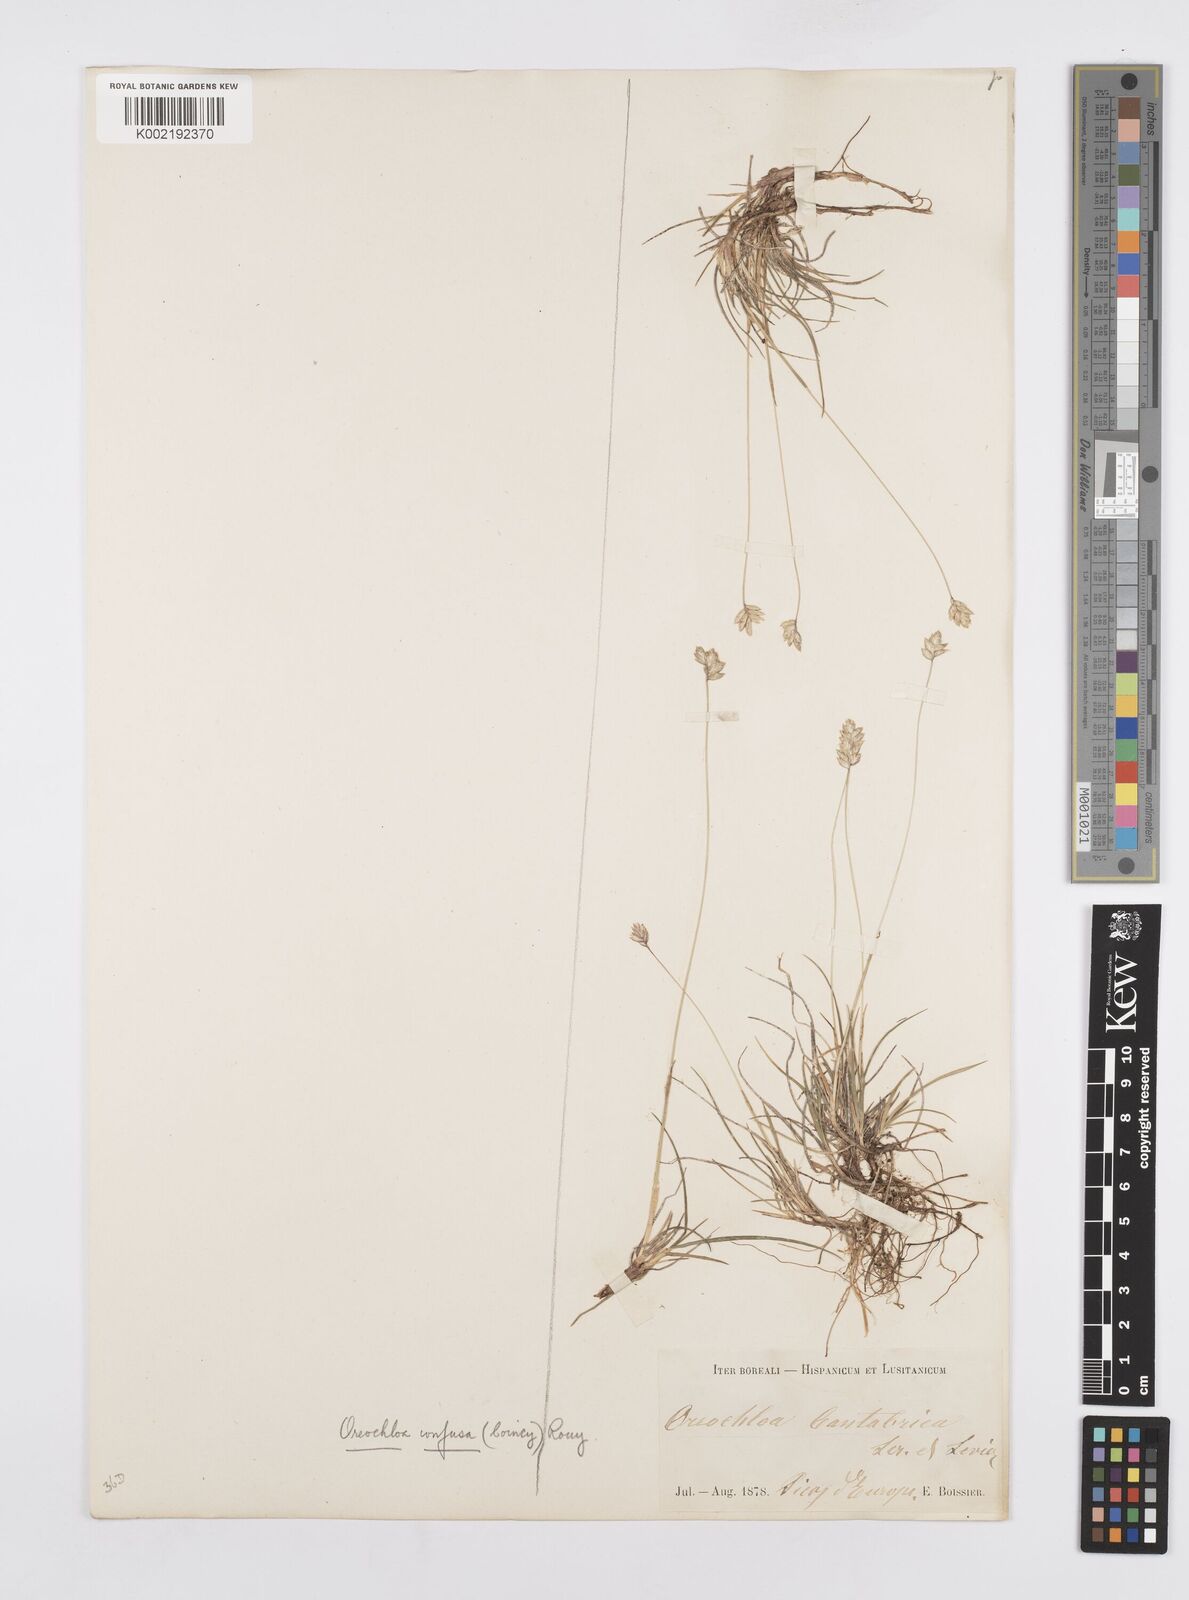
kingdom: Plantae
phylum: Tracheophyta
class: Liliopsida
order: Poales
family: Poaceae
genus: Oreochloa
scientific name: Oreochloa confusa
